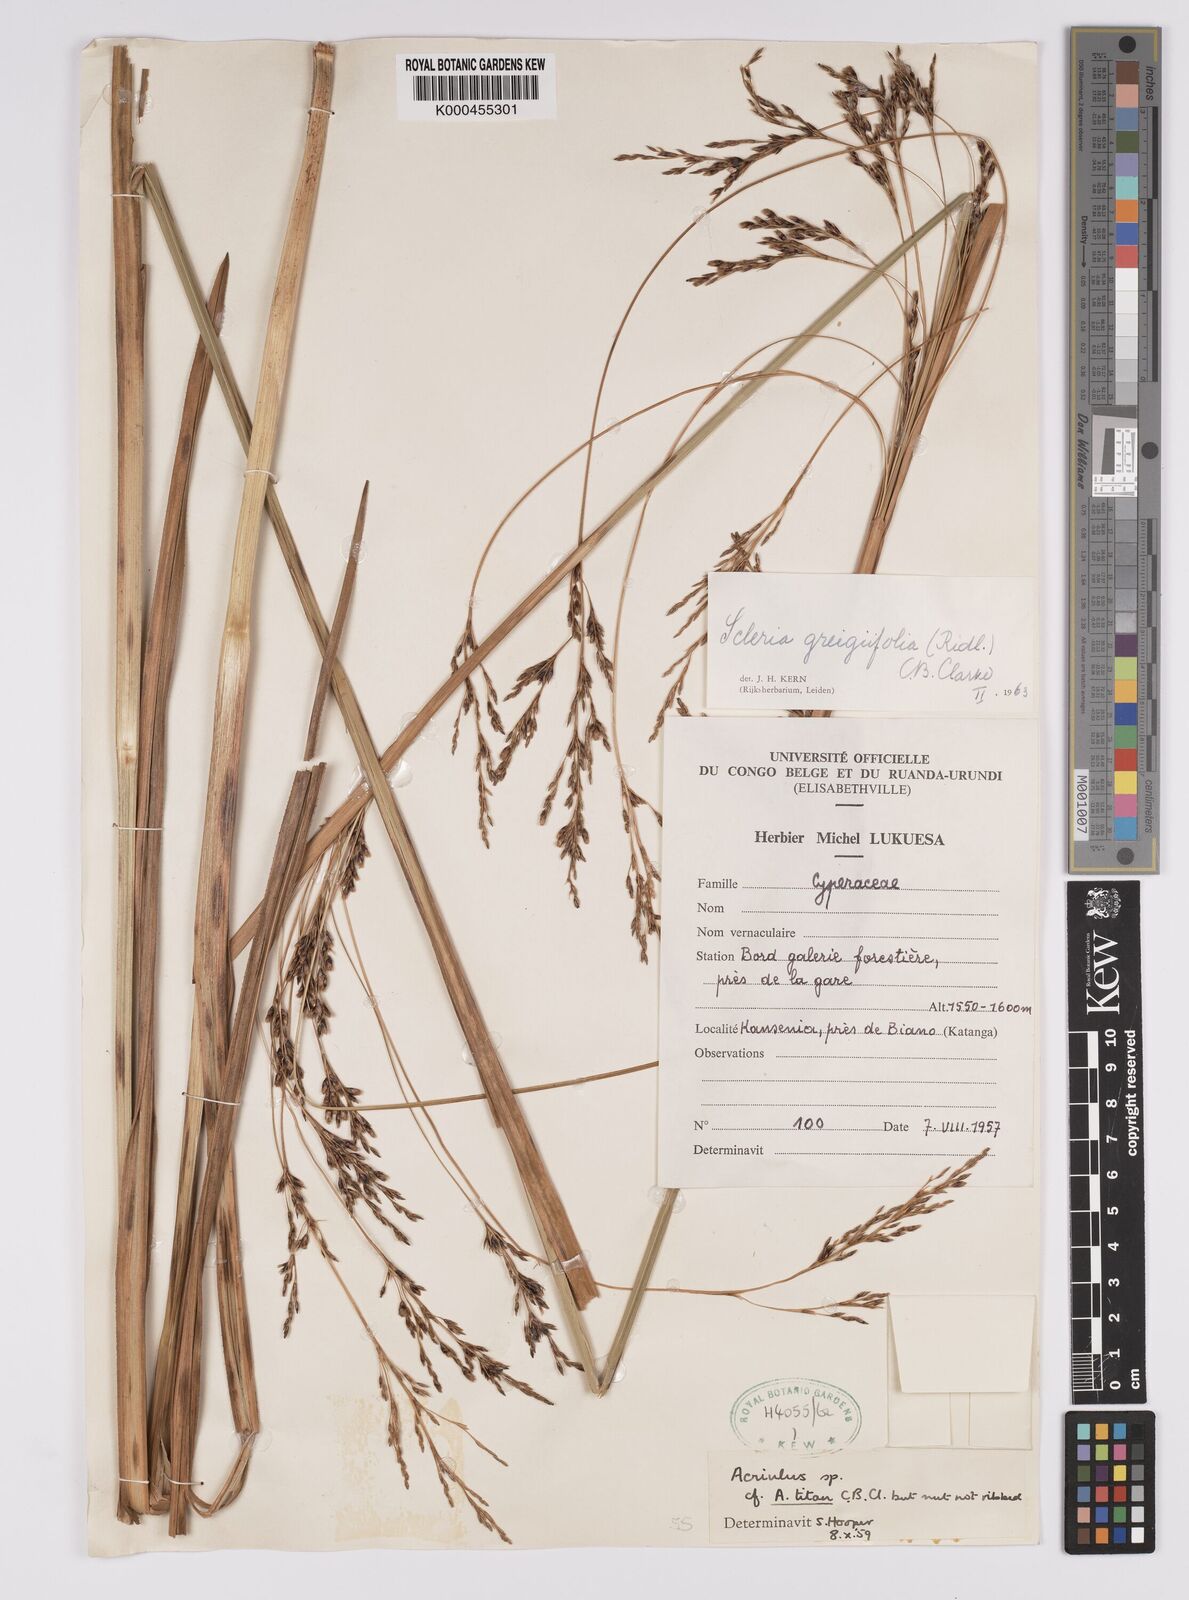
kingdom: Plantae
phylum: Tracheophyta
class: Liliopsida
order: Poales
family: Cyperaceae
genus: Scleria
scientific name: Scleria greigiifolia
